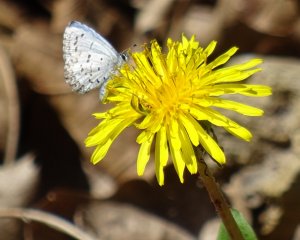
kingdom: Animalia
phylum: Arthropoda
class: Insecta
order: Lepidoptera
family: Lycaenidae
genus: Celastrina
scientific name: Celastrina lucia
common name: Northern Spring Azure
